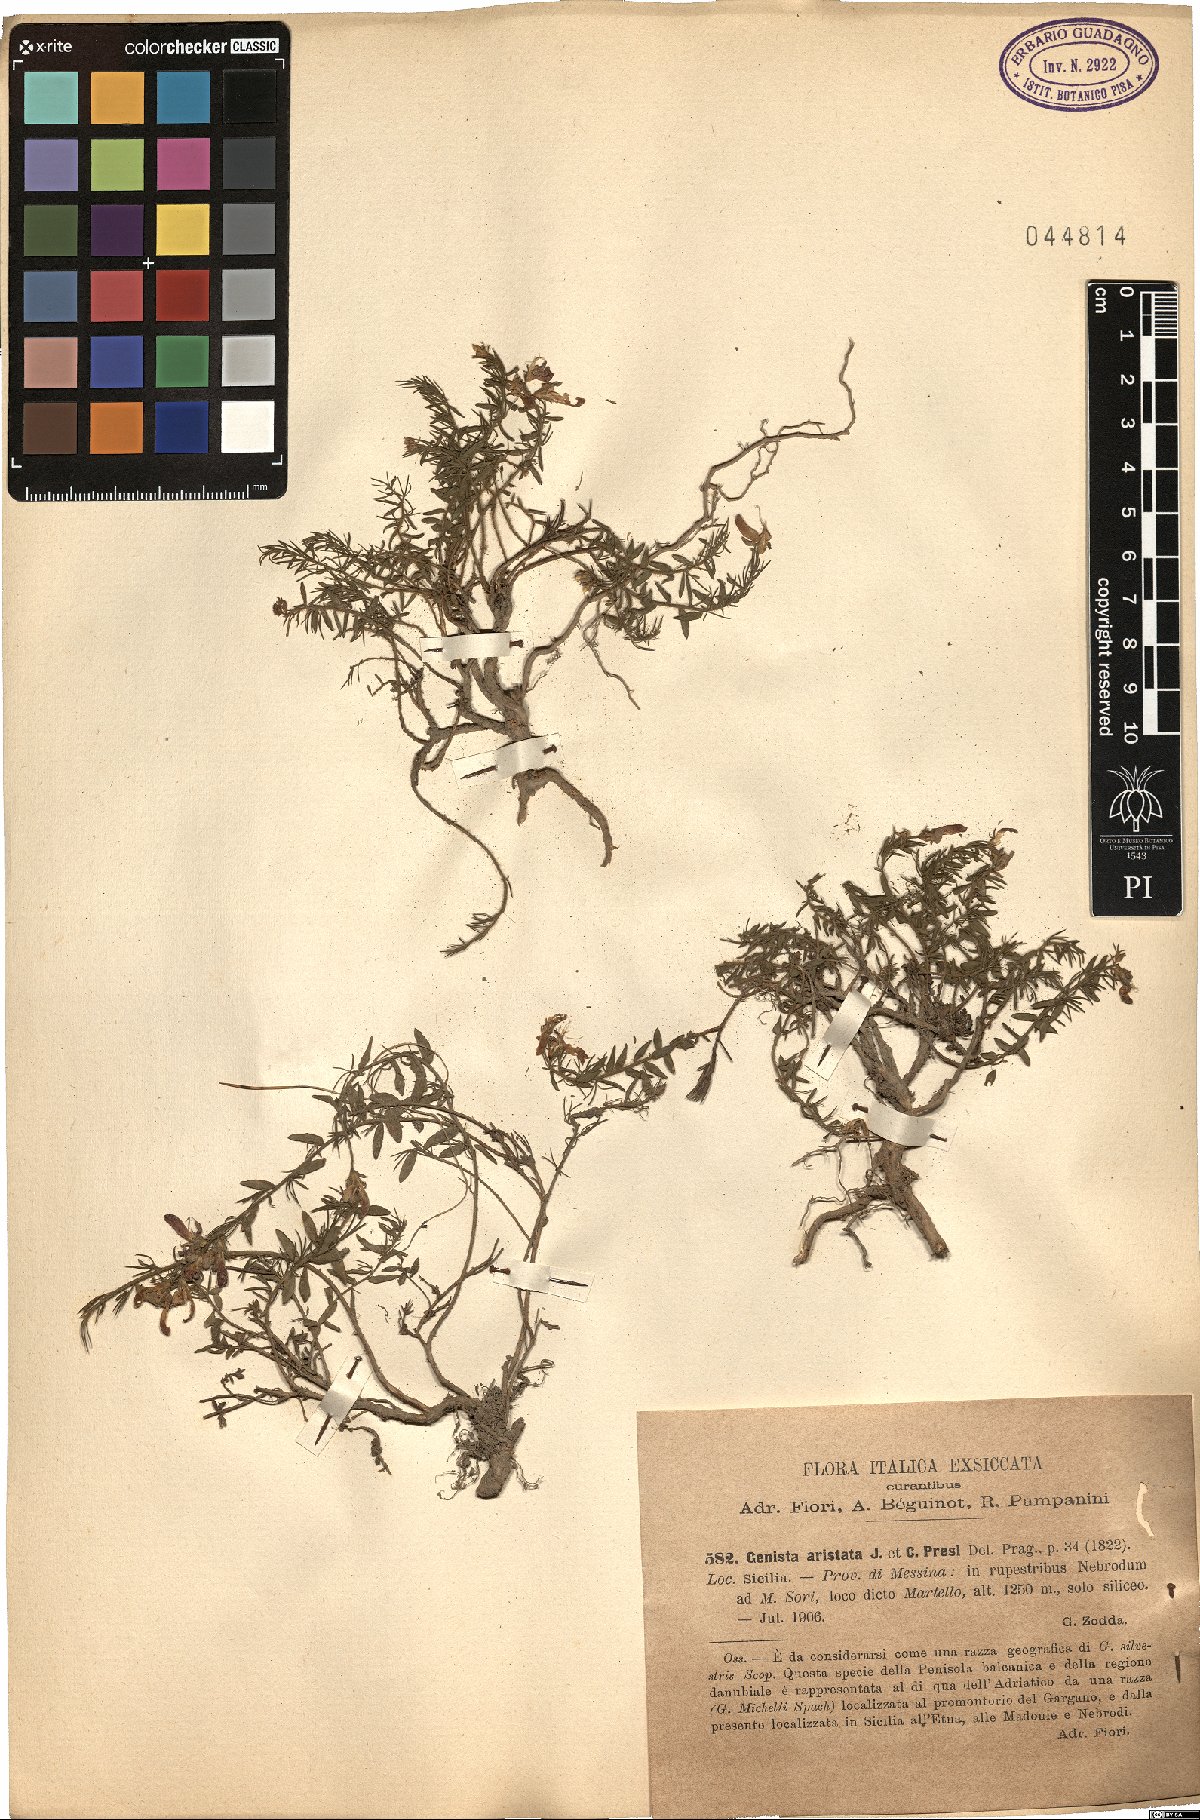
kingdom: Plantae
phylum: Tracheophyta
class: Magnoliopsida
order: Fabales
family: Fabaceae
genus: Genista
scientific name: Genista aristata
